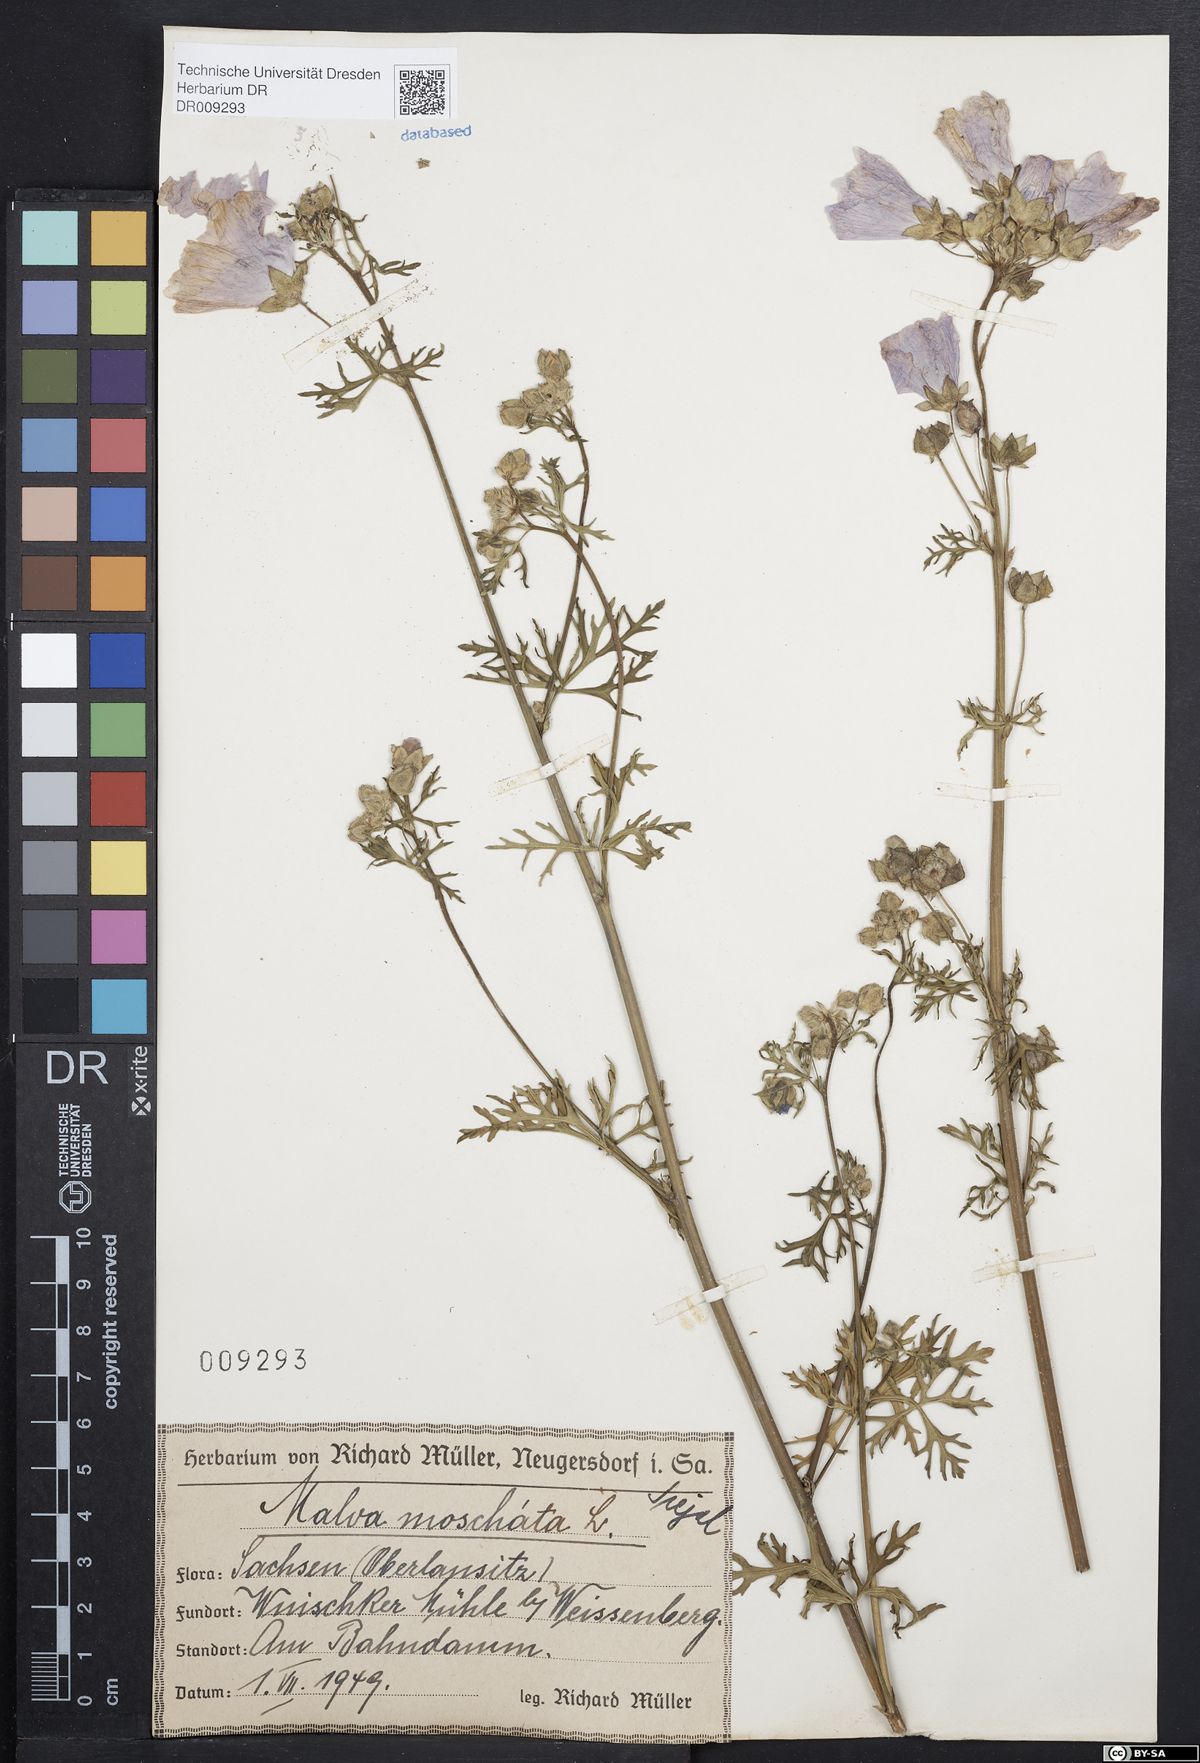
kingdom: Plantae
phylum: Tracheophyta
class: Magnoliopsida
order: Malvales
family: Malvaceae
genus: Malva
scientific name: Malva moschata
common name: Musk mallow
